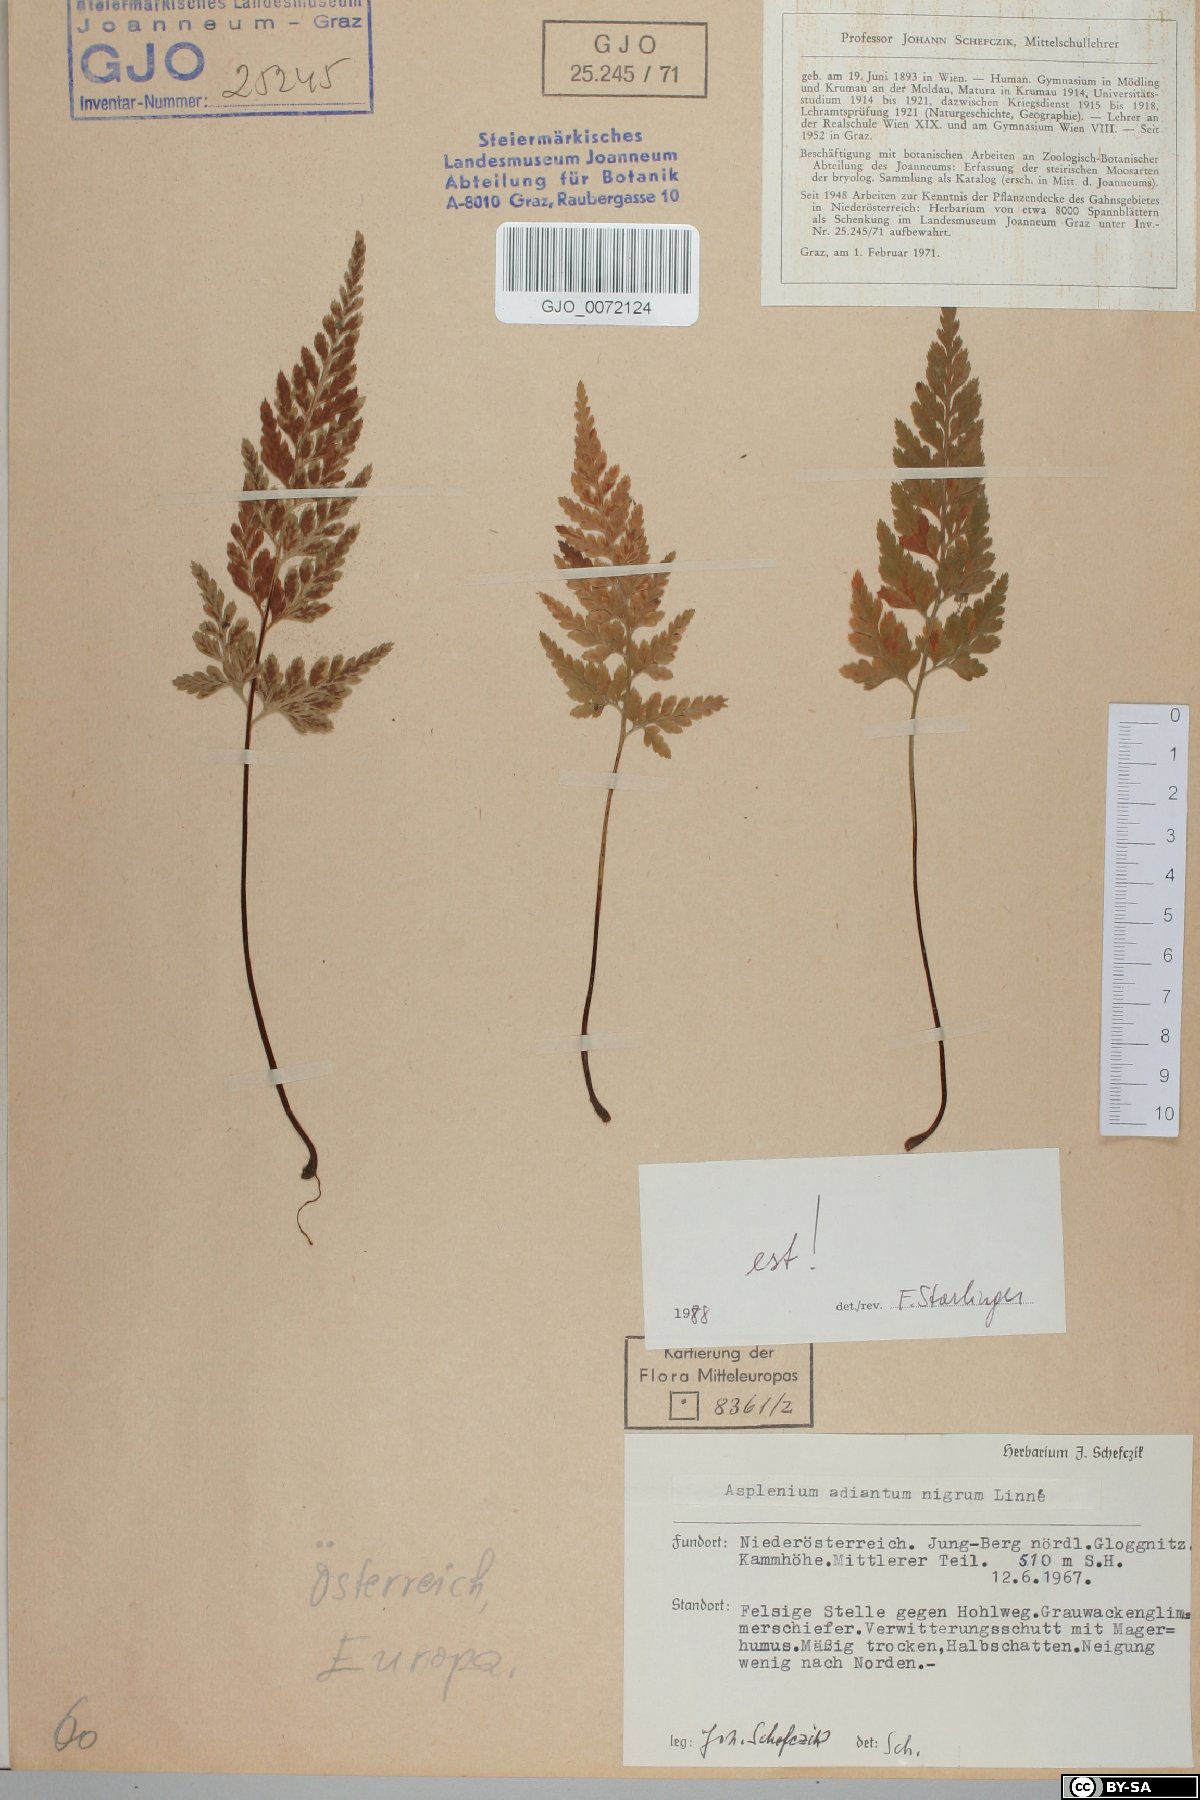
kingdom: Plantae
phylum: Tracheophyta
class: Polypodiopsida
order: Polypodiales
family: Aspleniaceae
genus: Asplenium
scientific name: Asplenium adiantum-nigrum
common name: Black spleenwort
